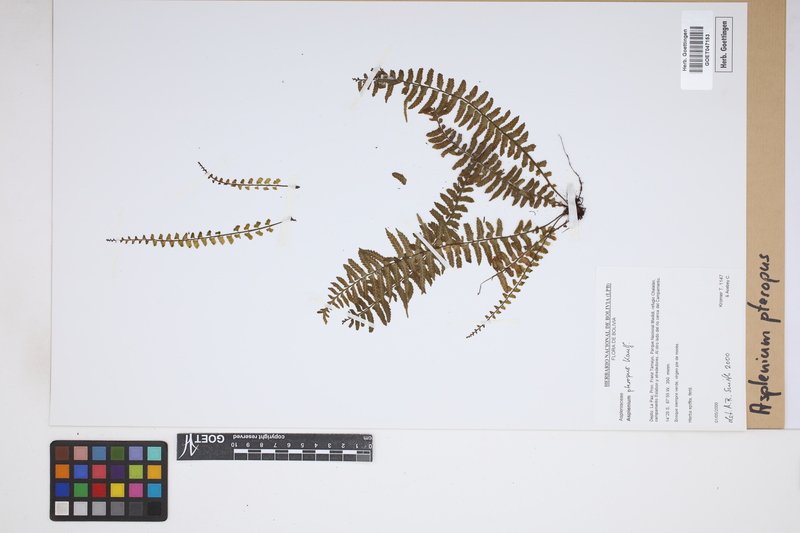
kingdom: Plantae
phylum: Tracheophyta
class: Polypodiopsida
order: Polypodiales
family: Aspleniaceae
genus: Asplenium
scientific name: Asplenium pteropus
